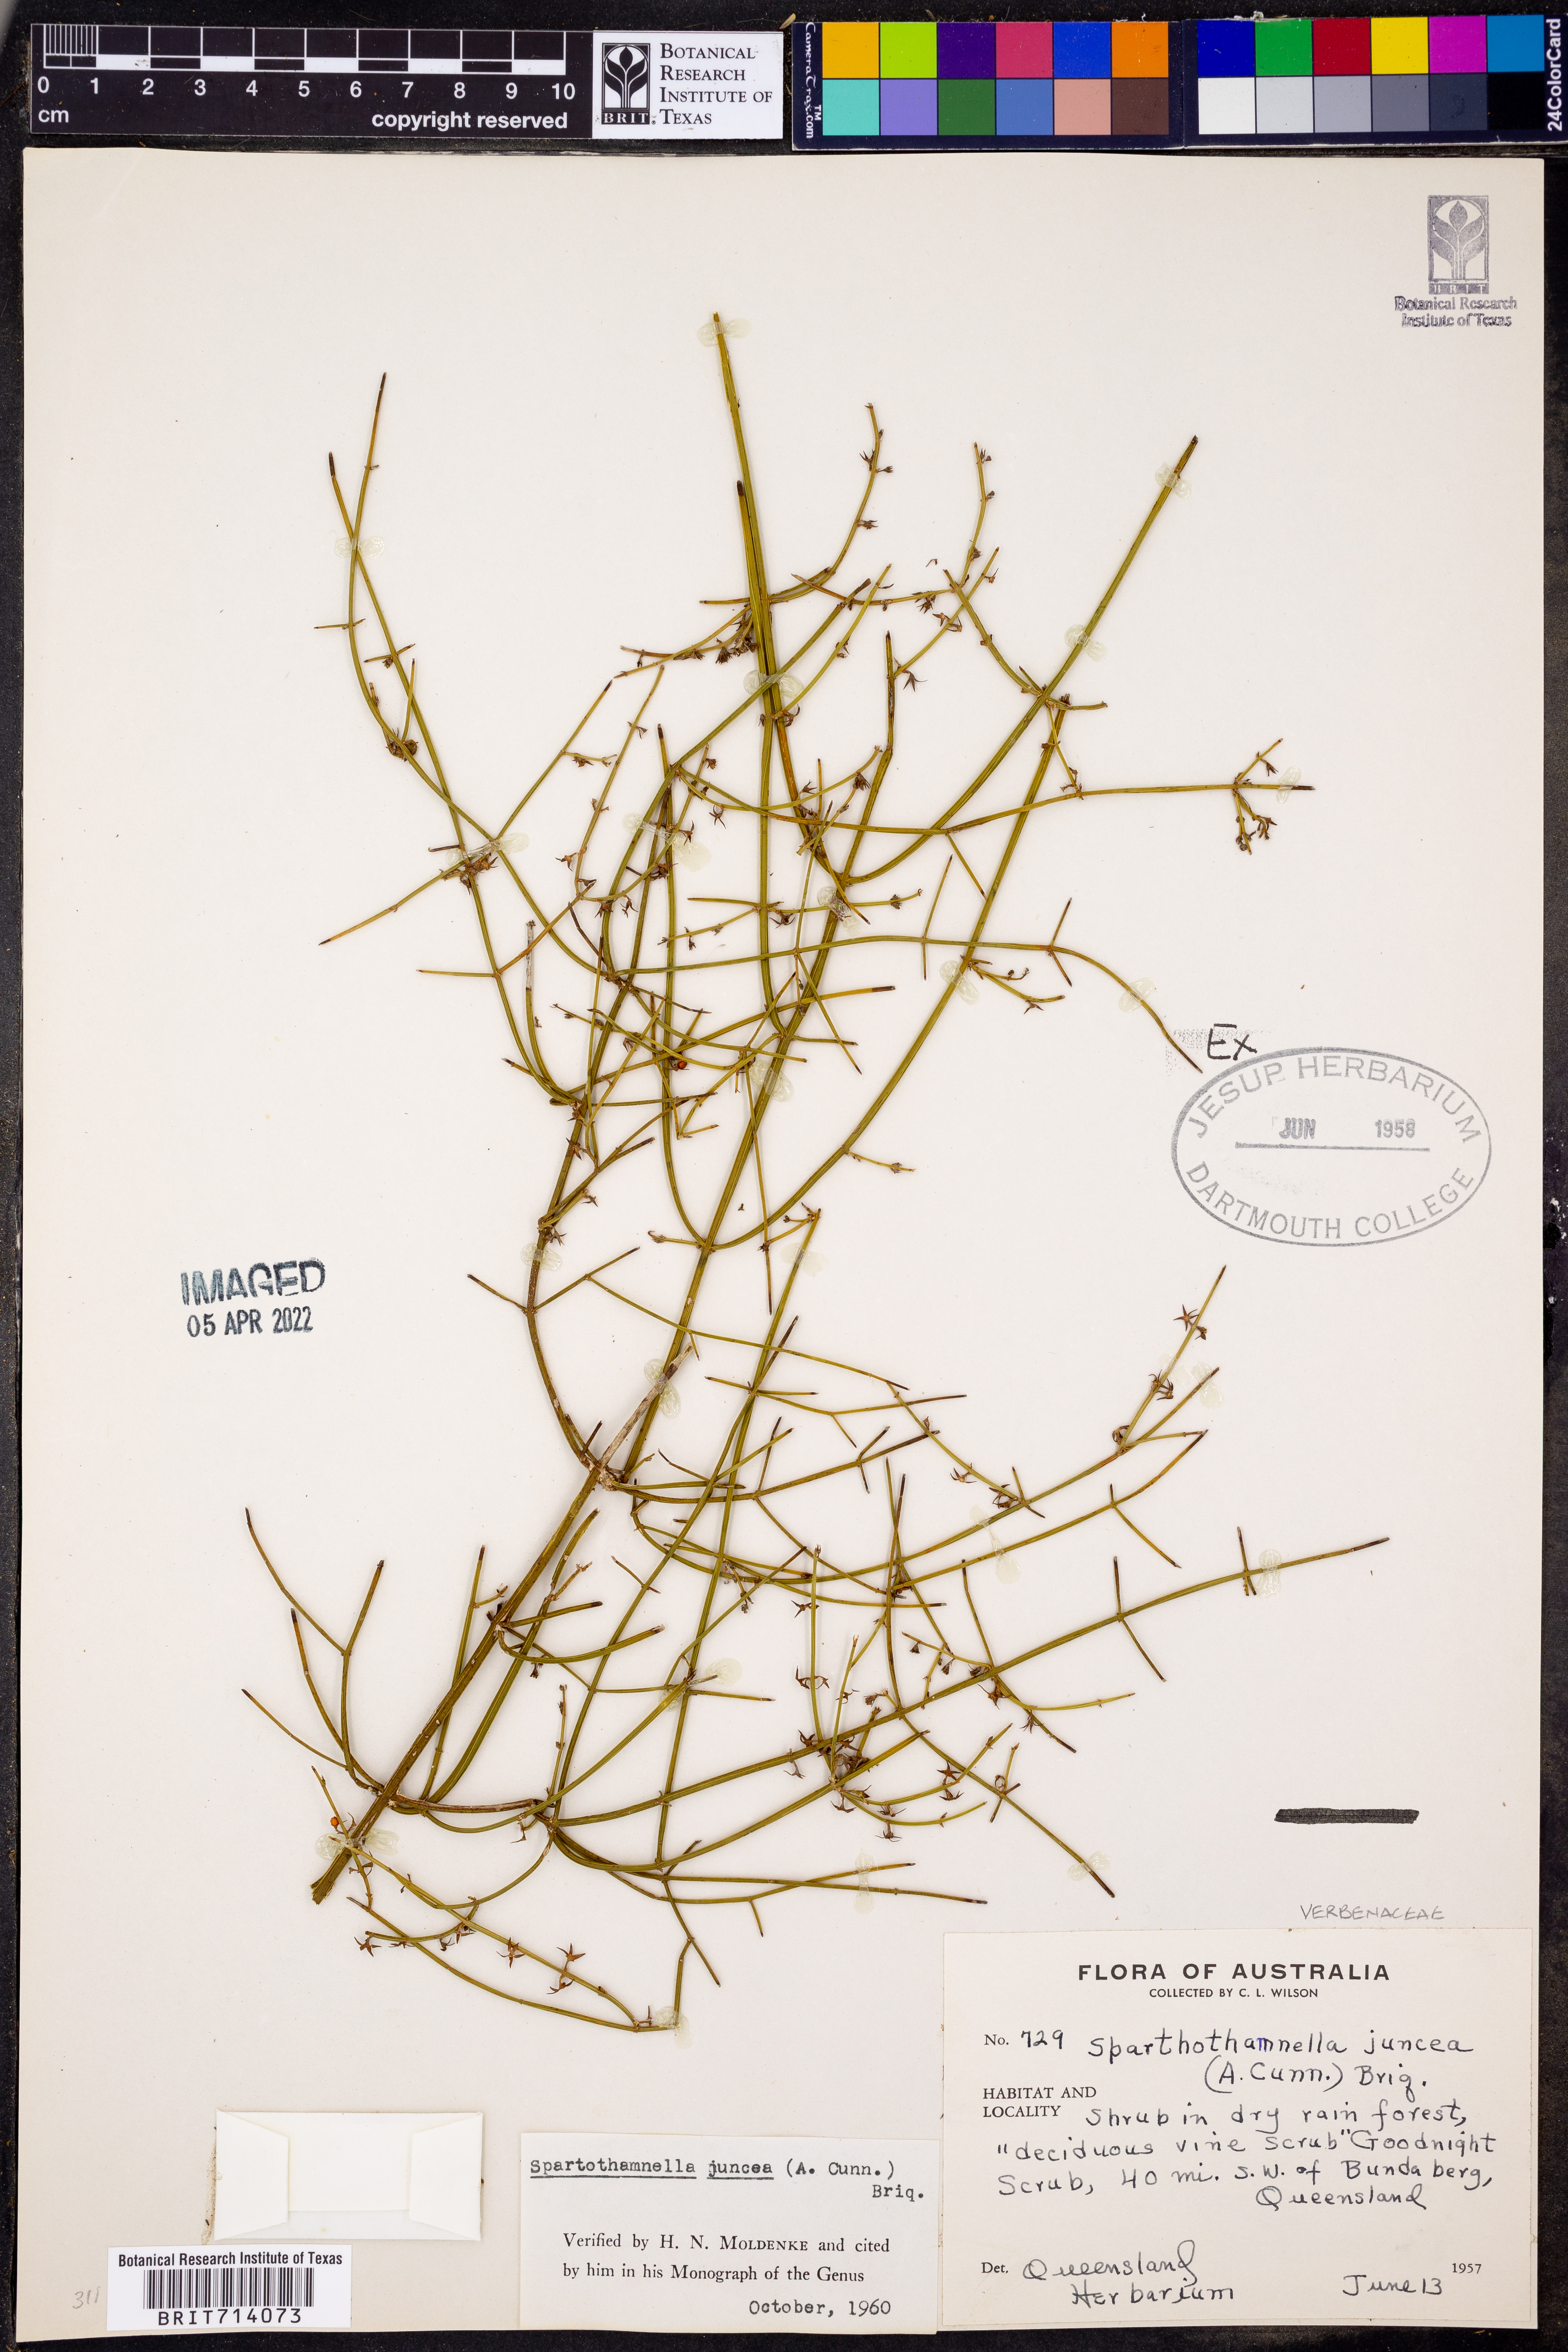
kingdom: Plantae
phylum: Tracheophyta
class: Magnoliopsida
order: Lamiales
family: Lamiaceae
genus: Teucrium
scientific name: Teucrium
